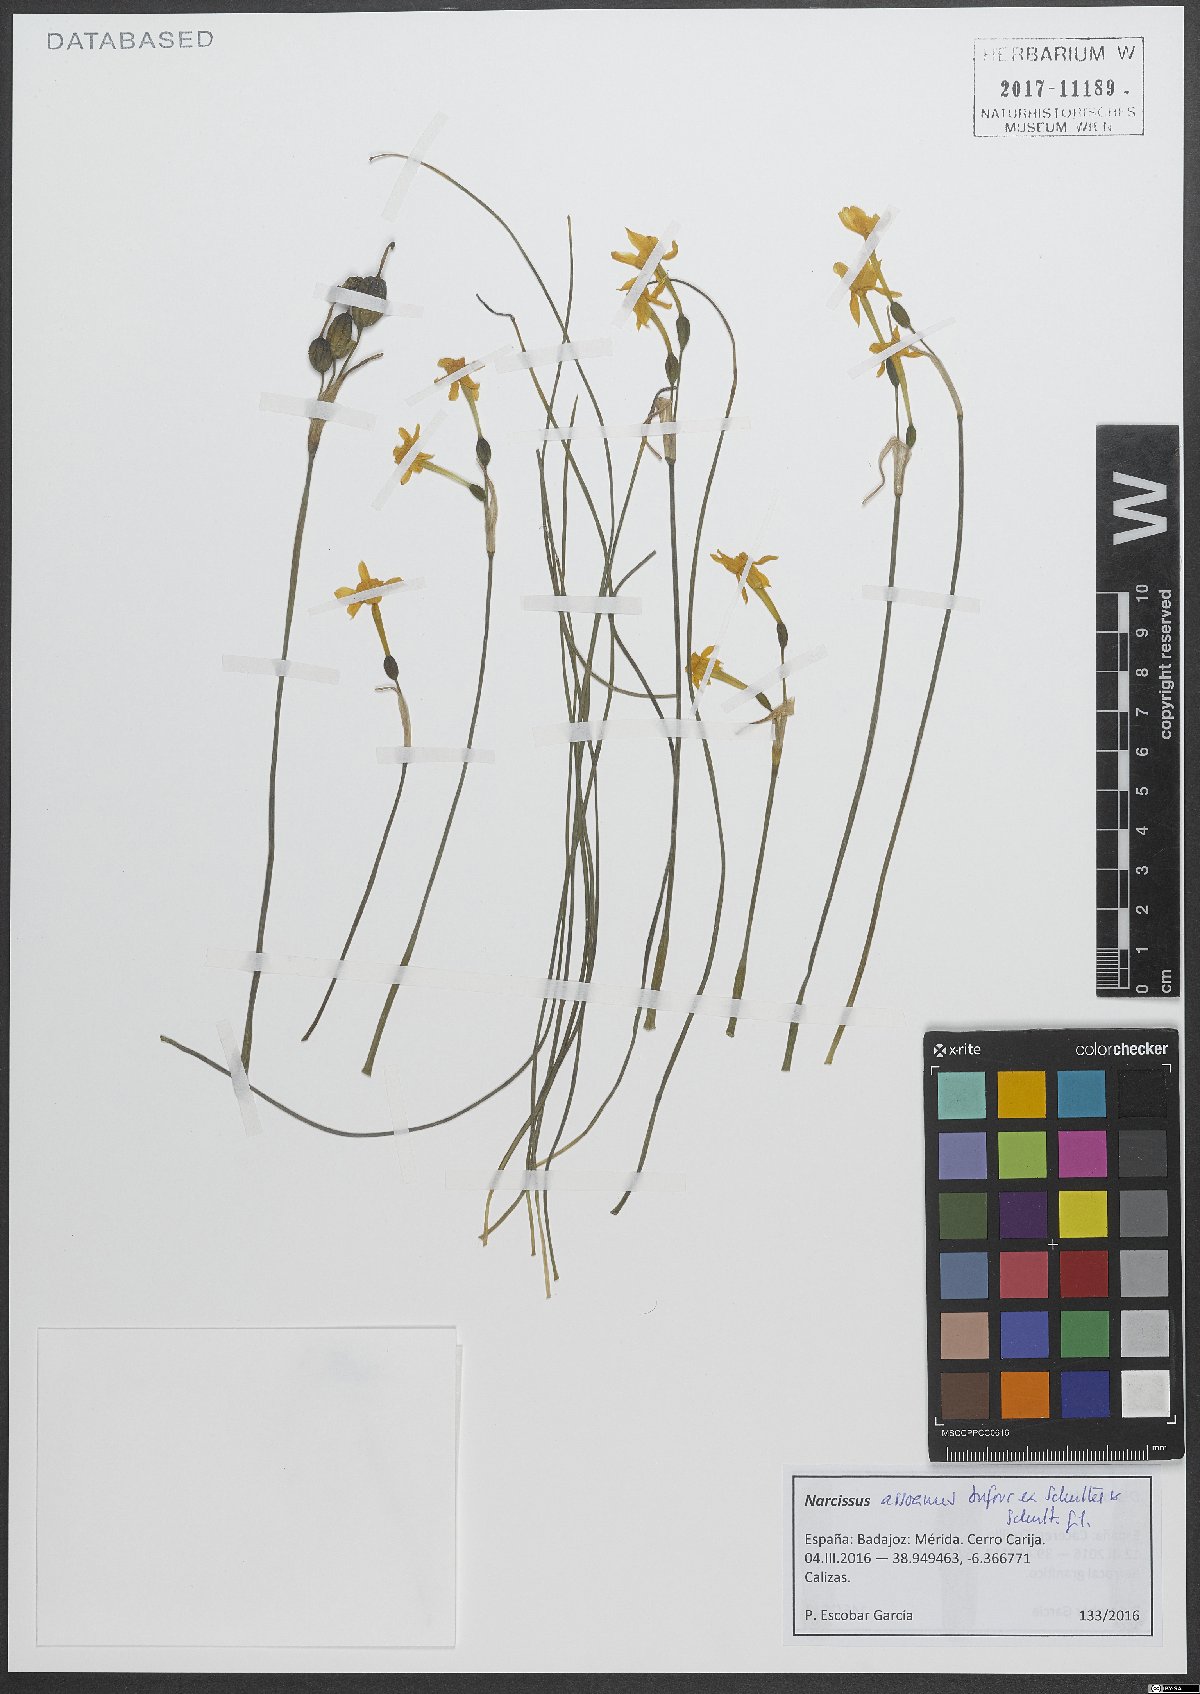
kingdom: Plantae
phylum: Tracheophyta
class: Liliopsida
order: Asparagales
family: Amaryllidaceae
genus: Narcissus
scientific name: Narcissus assoanus
